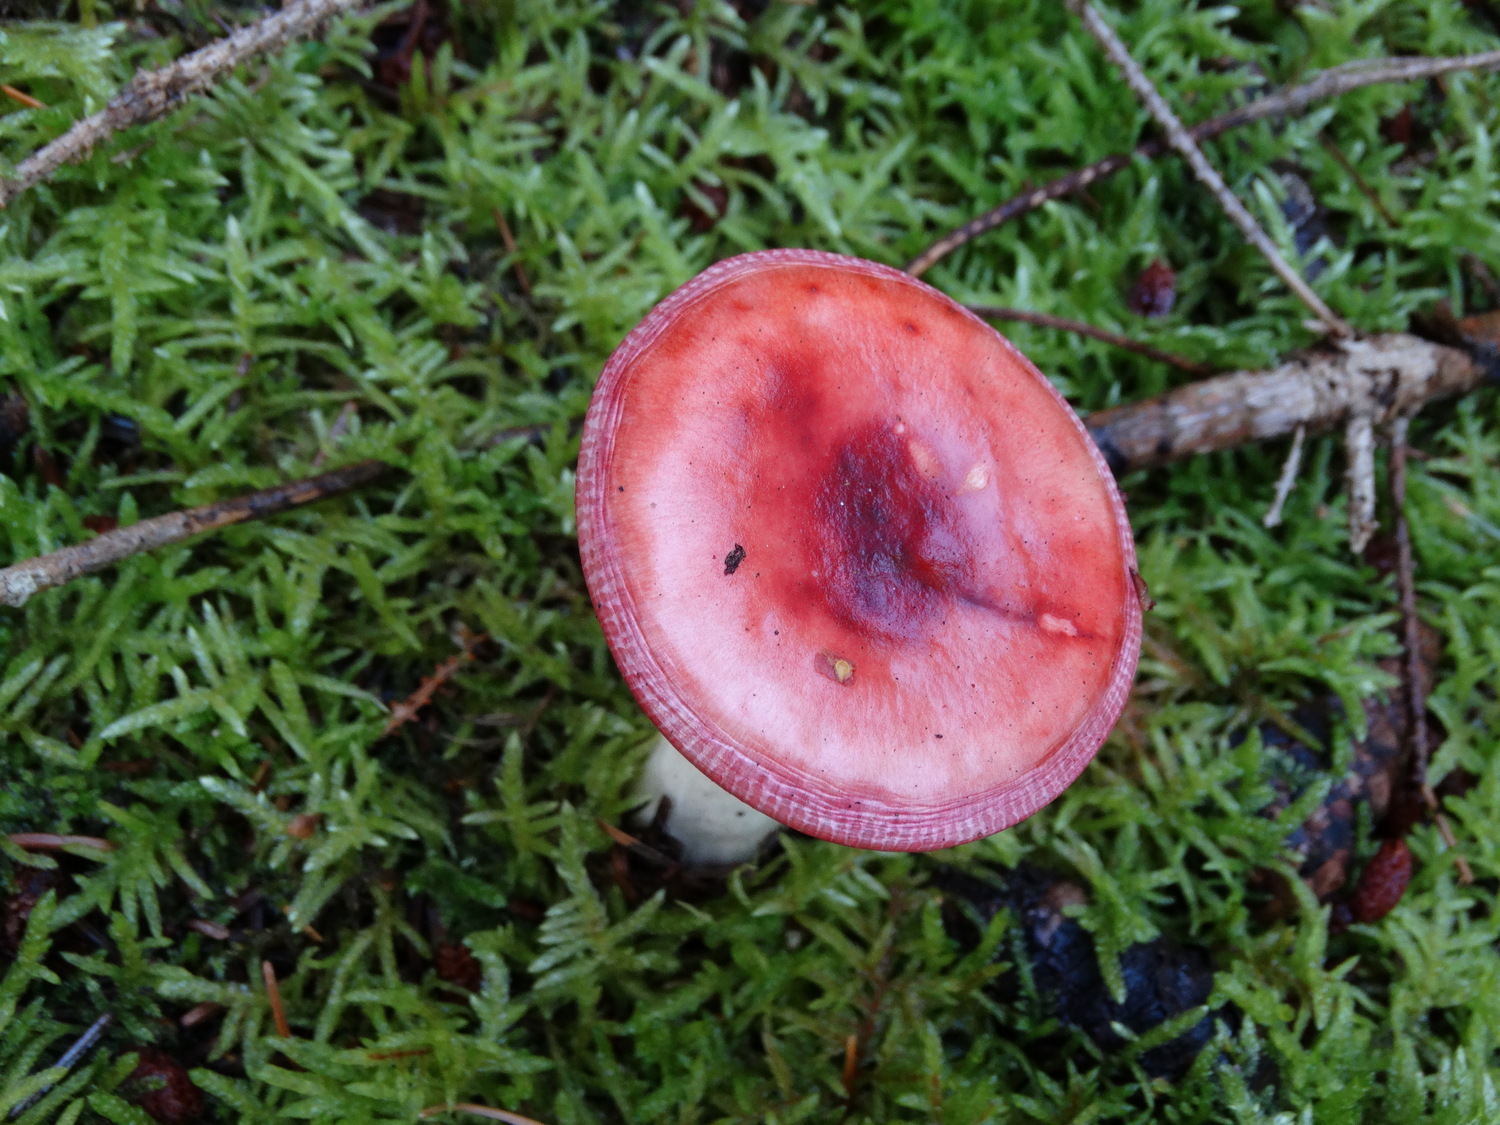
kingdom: Fungi
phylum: Basidiomycota
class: Agaricomycetes
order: Russulales
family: Russulaceae
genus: Russula
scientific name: Russula emetica
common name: stor gift-skørhat
